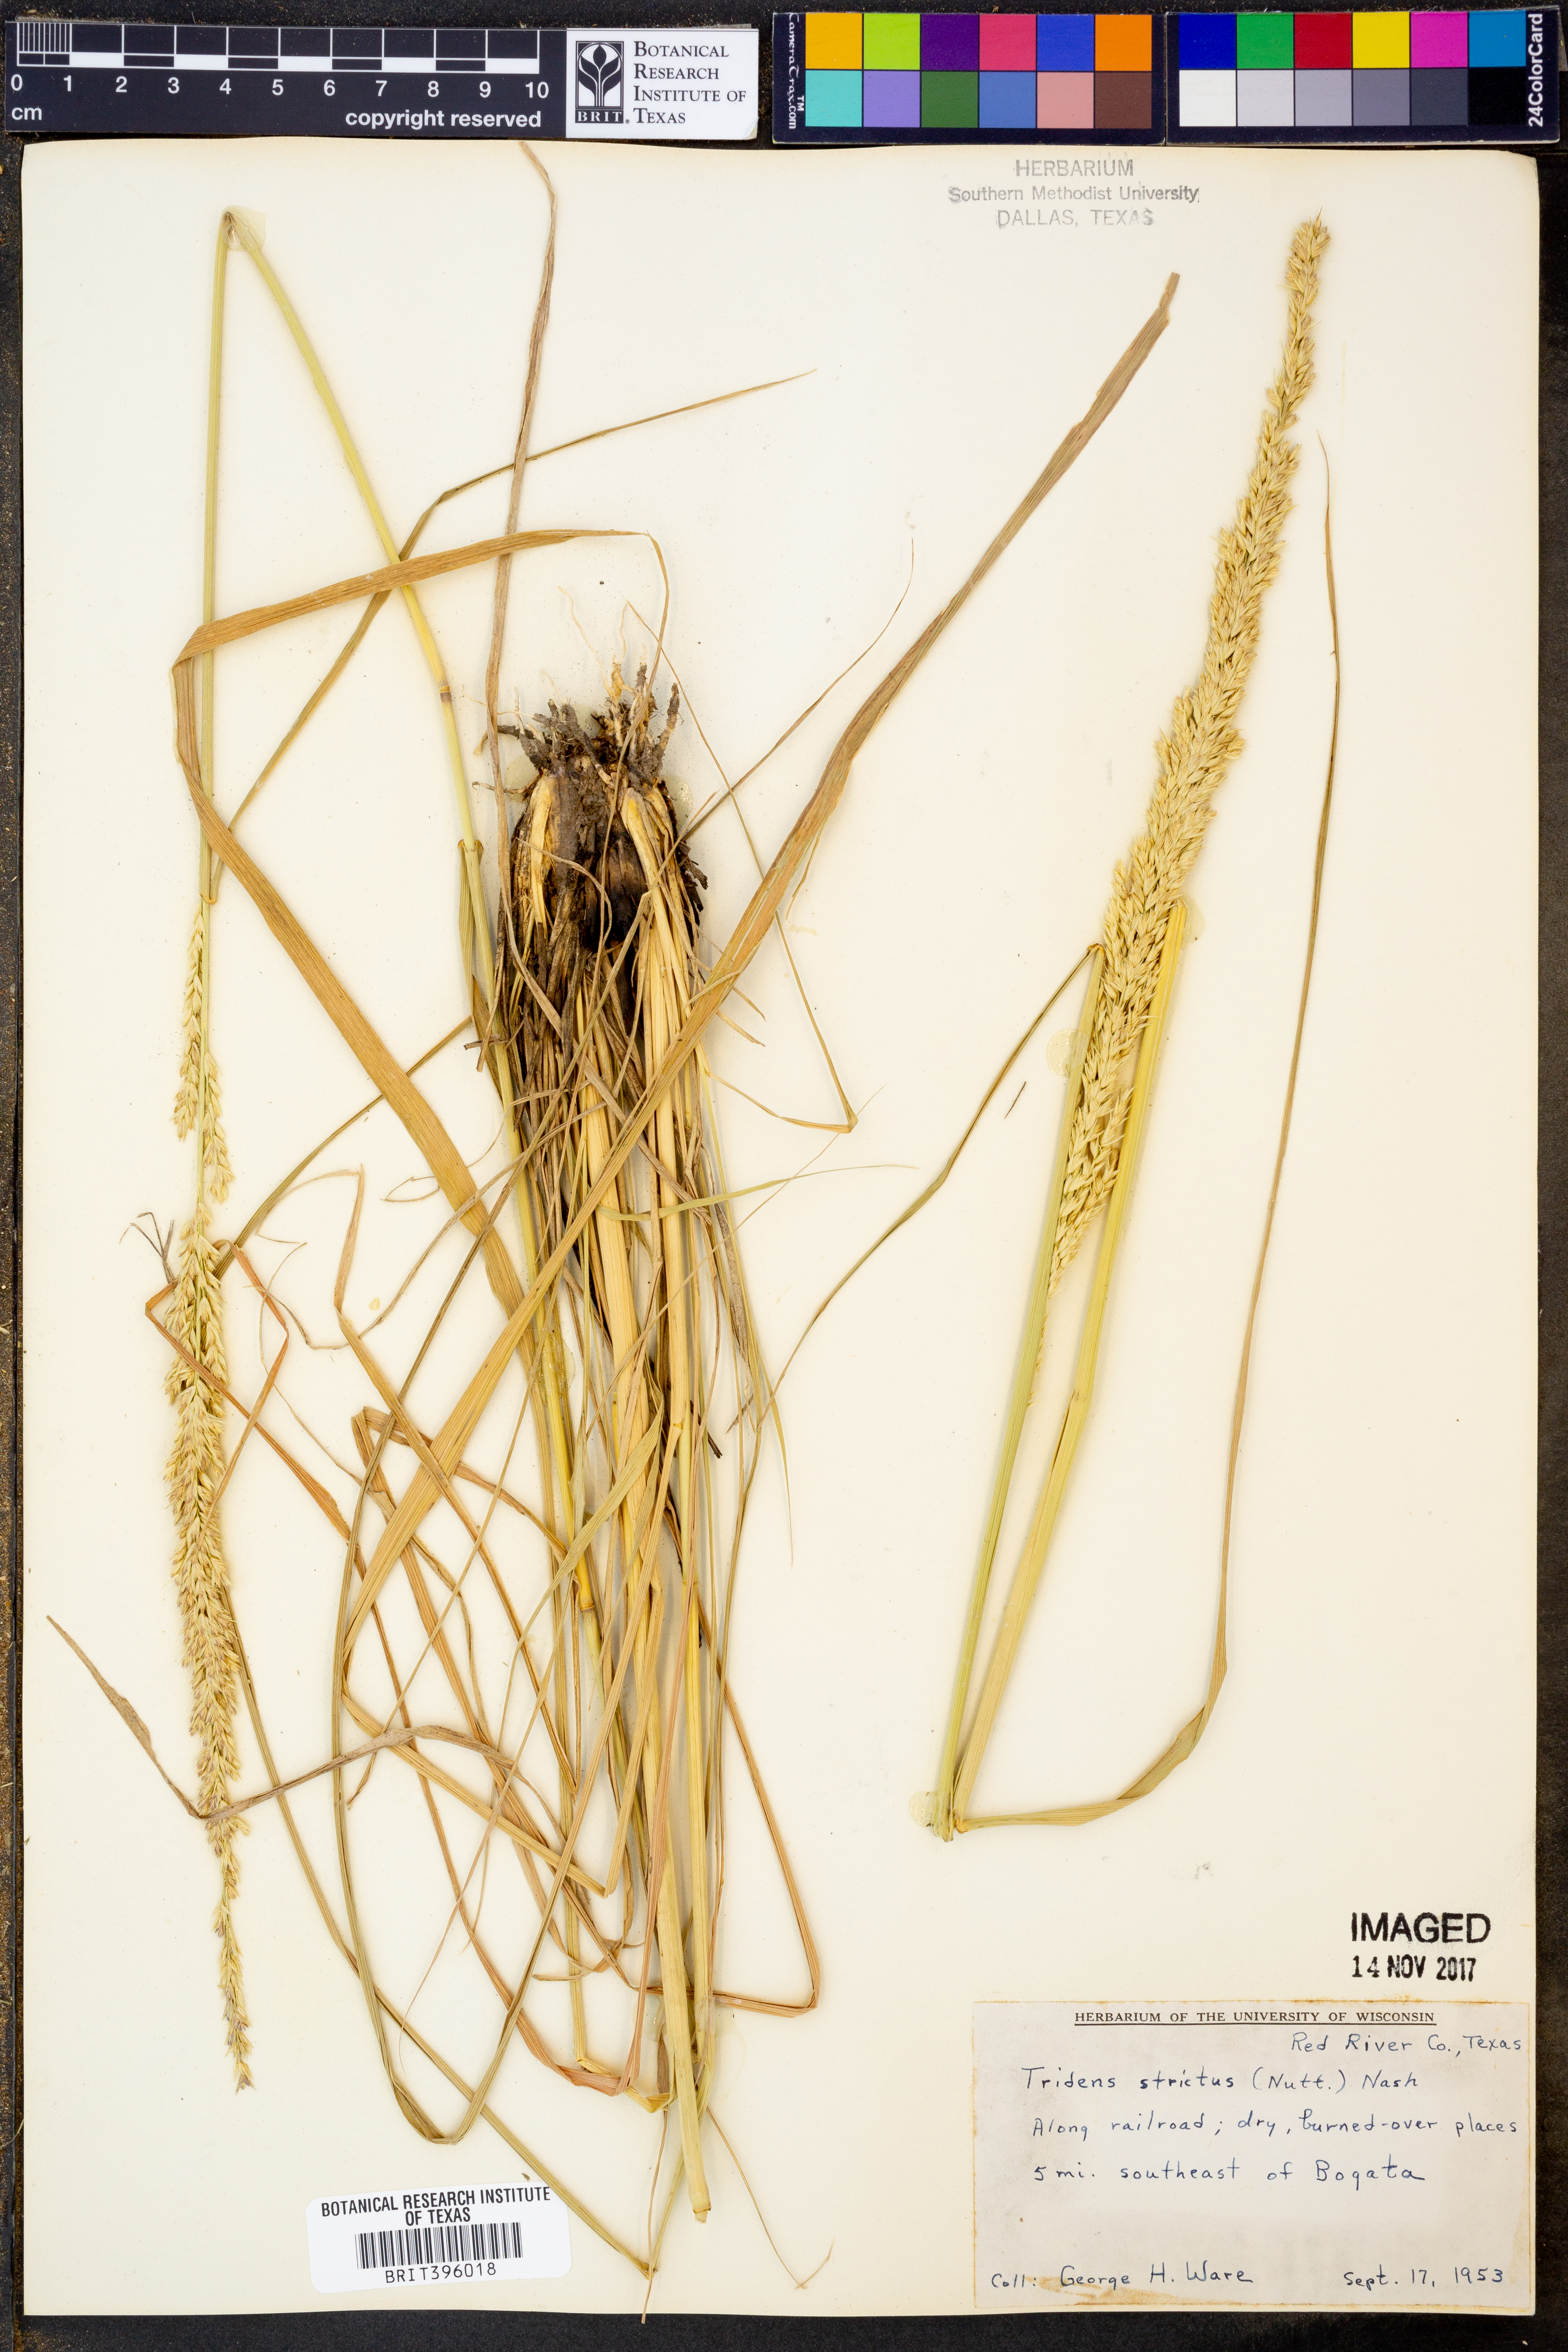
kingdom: Plantae
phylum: Tracheophyta
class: Liliopsida
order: Poales
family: Poaceae
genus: Tridens
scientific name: Tridens strictus
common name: Long-spike tridens
